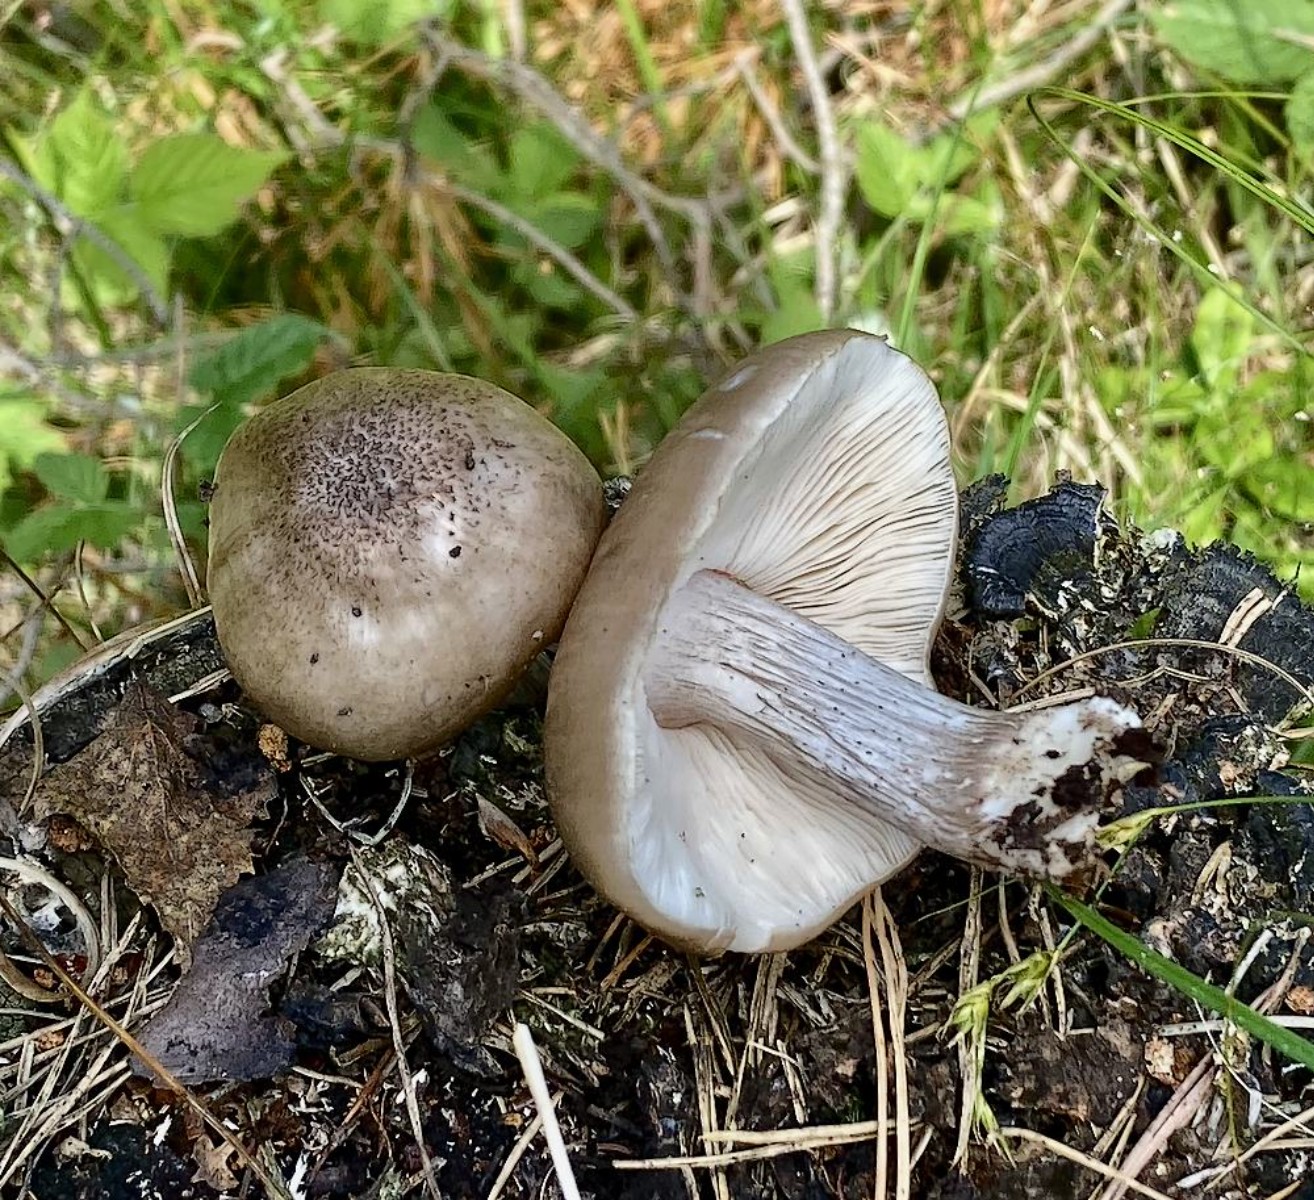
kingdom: Fungi
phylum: Basidiomycota
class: Agaricomycetes
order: Agaricales
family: Pluteaceae
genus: Pluteus
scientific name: Pluteus cervinus
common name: sodfarvet skærmhat
